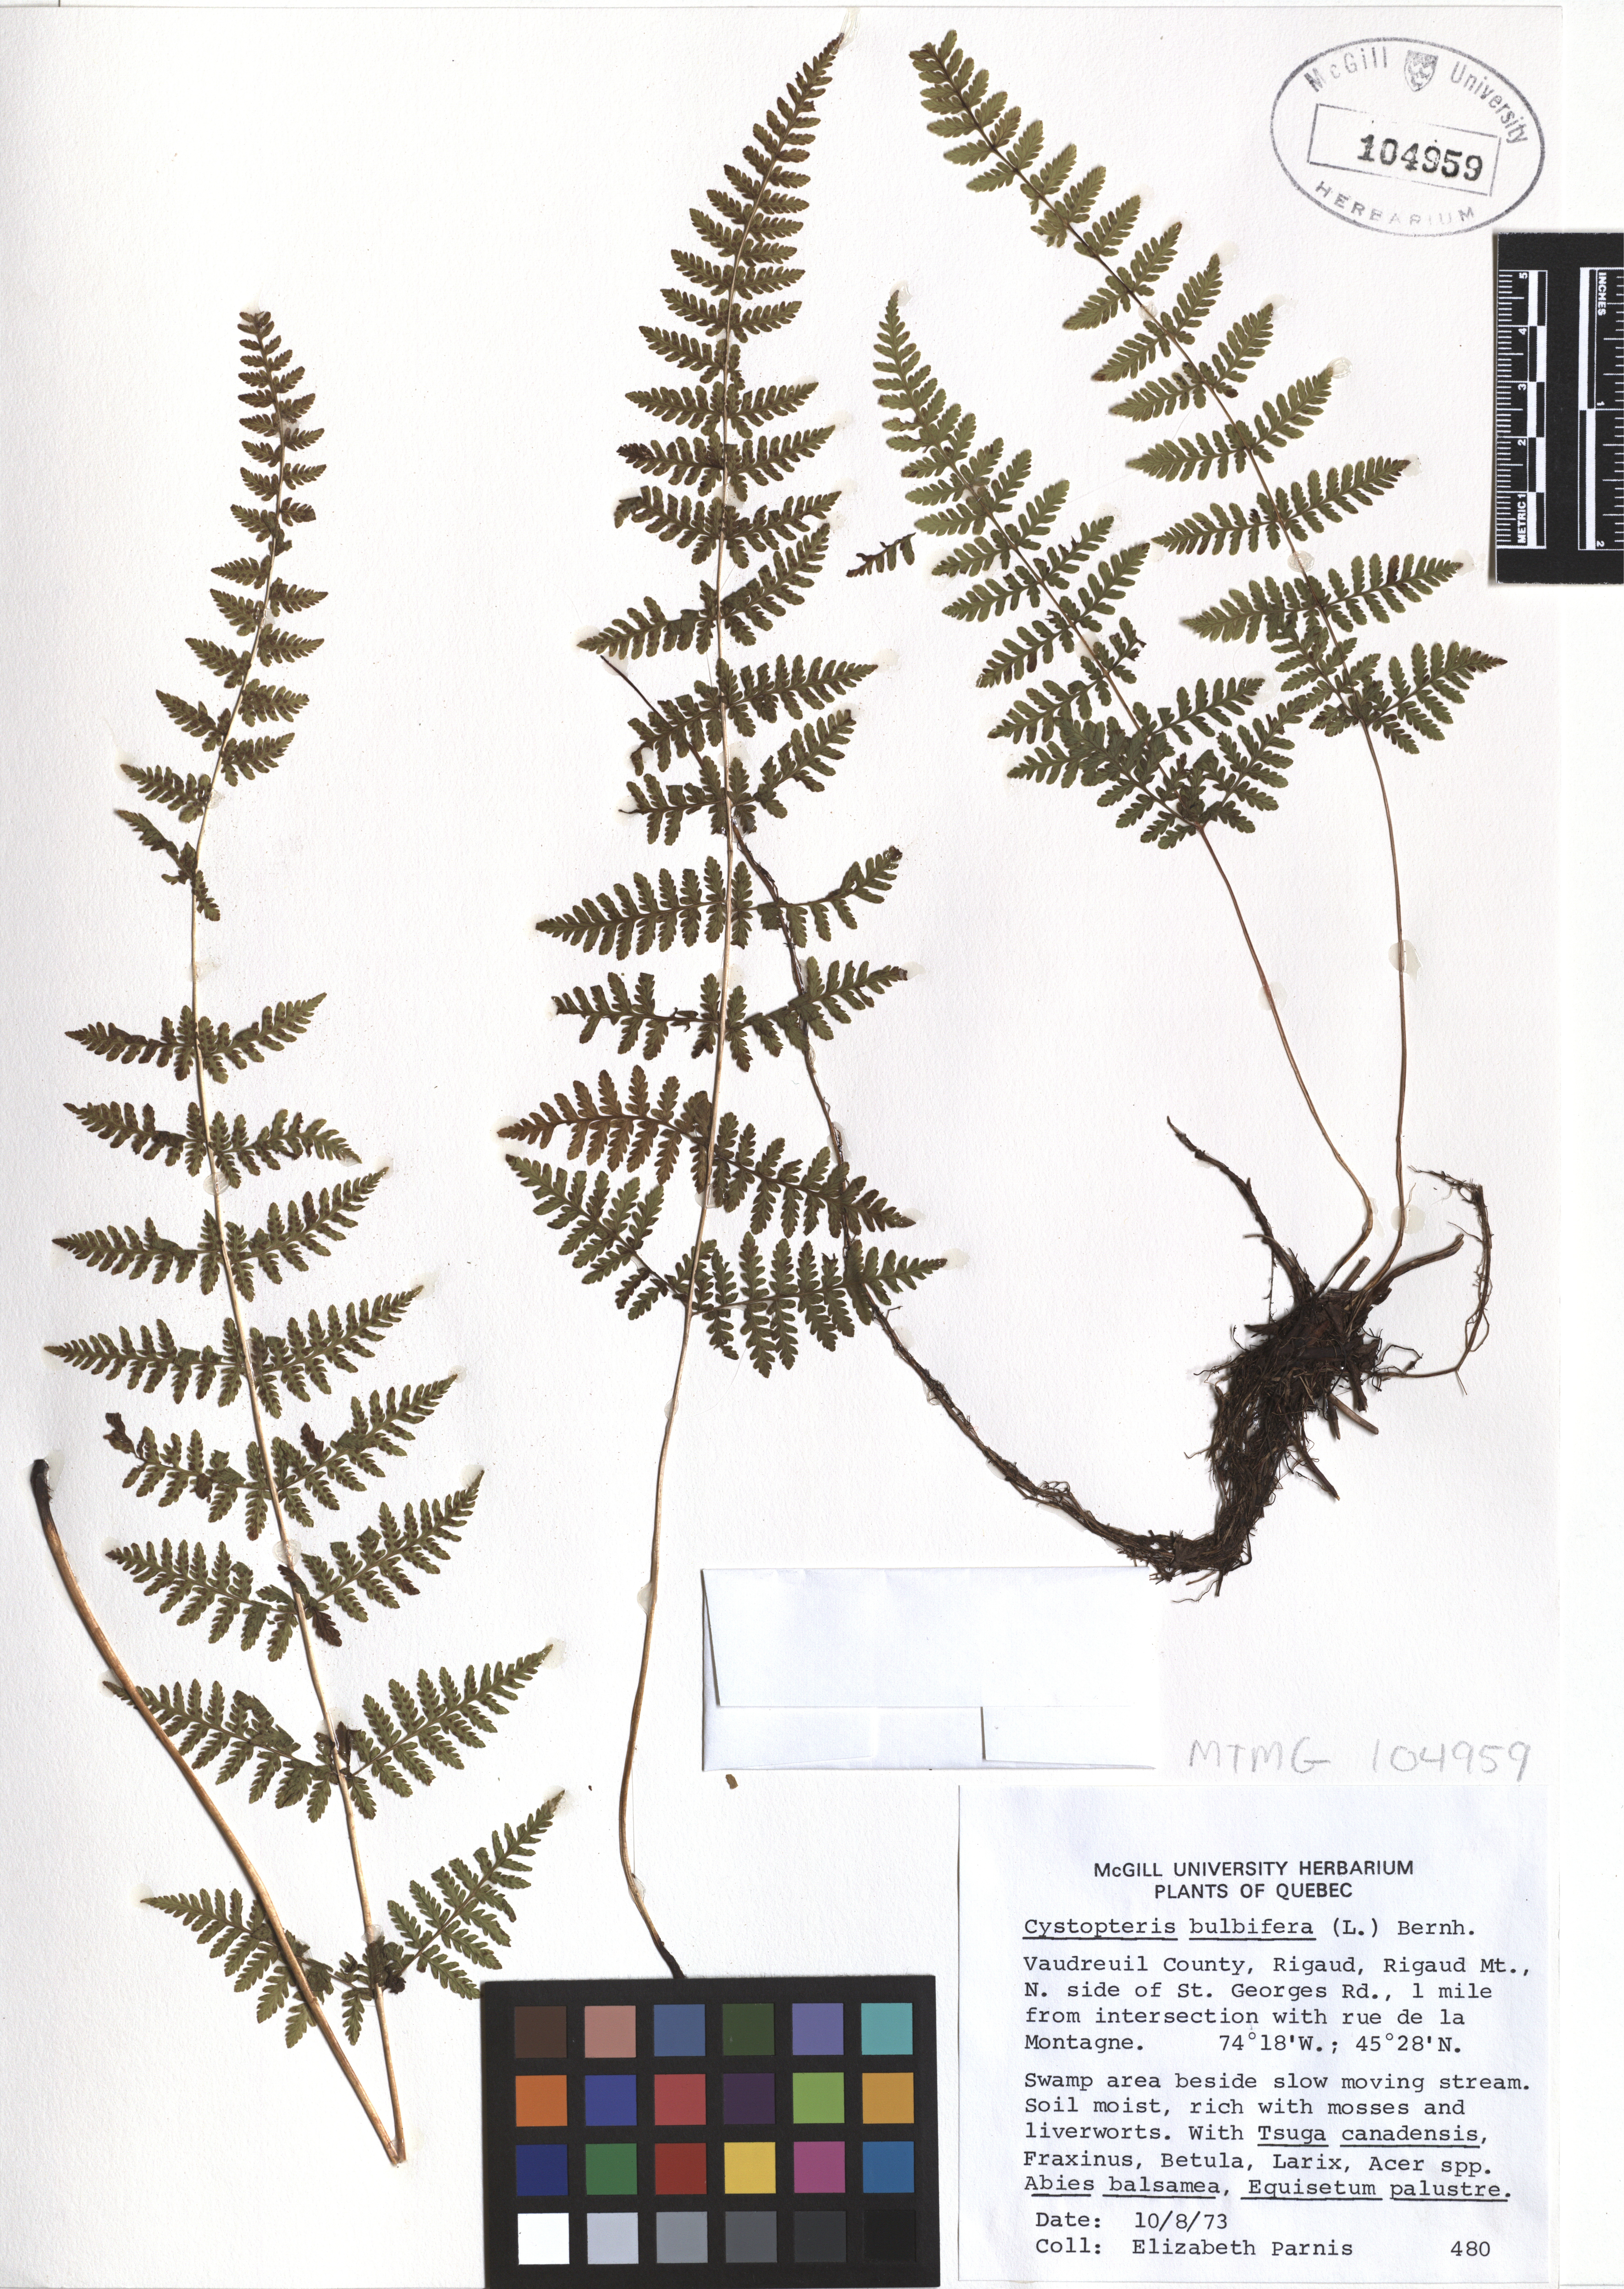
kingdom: Plantae
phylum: Tracheophyta
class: Polypodiopsida
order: Polypodiales
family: Cystopteridaceae
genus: Cystopteris
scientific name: Cystopteris bulbifera
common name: Bulblet bladder fern
